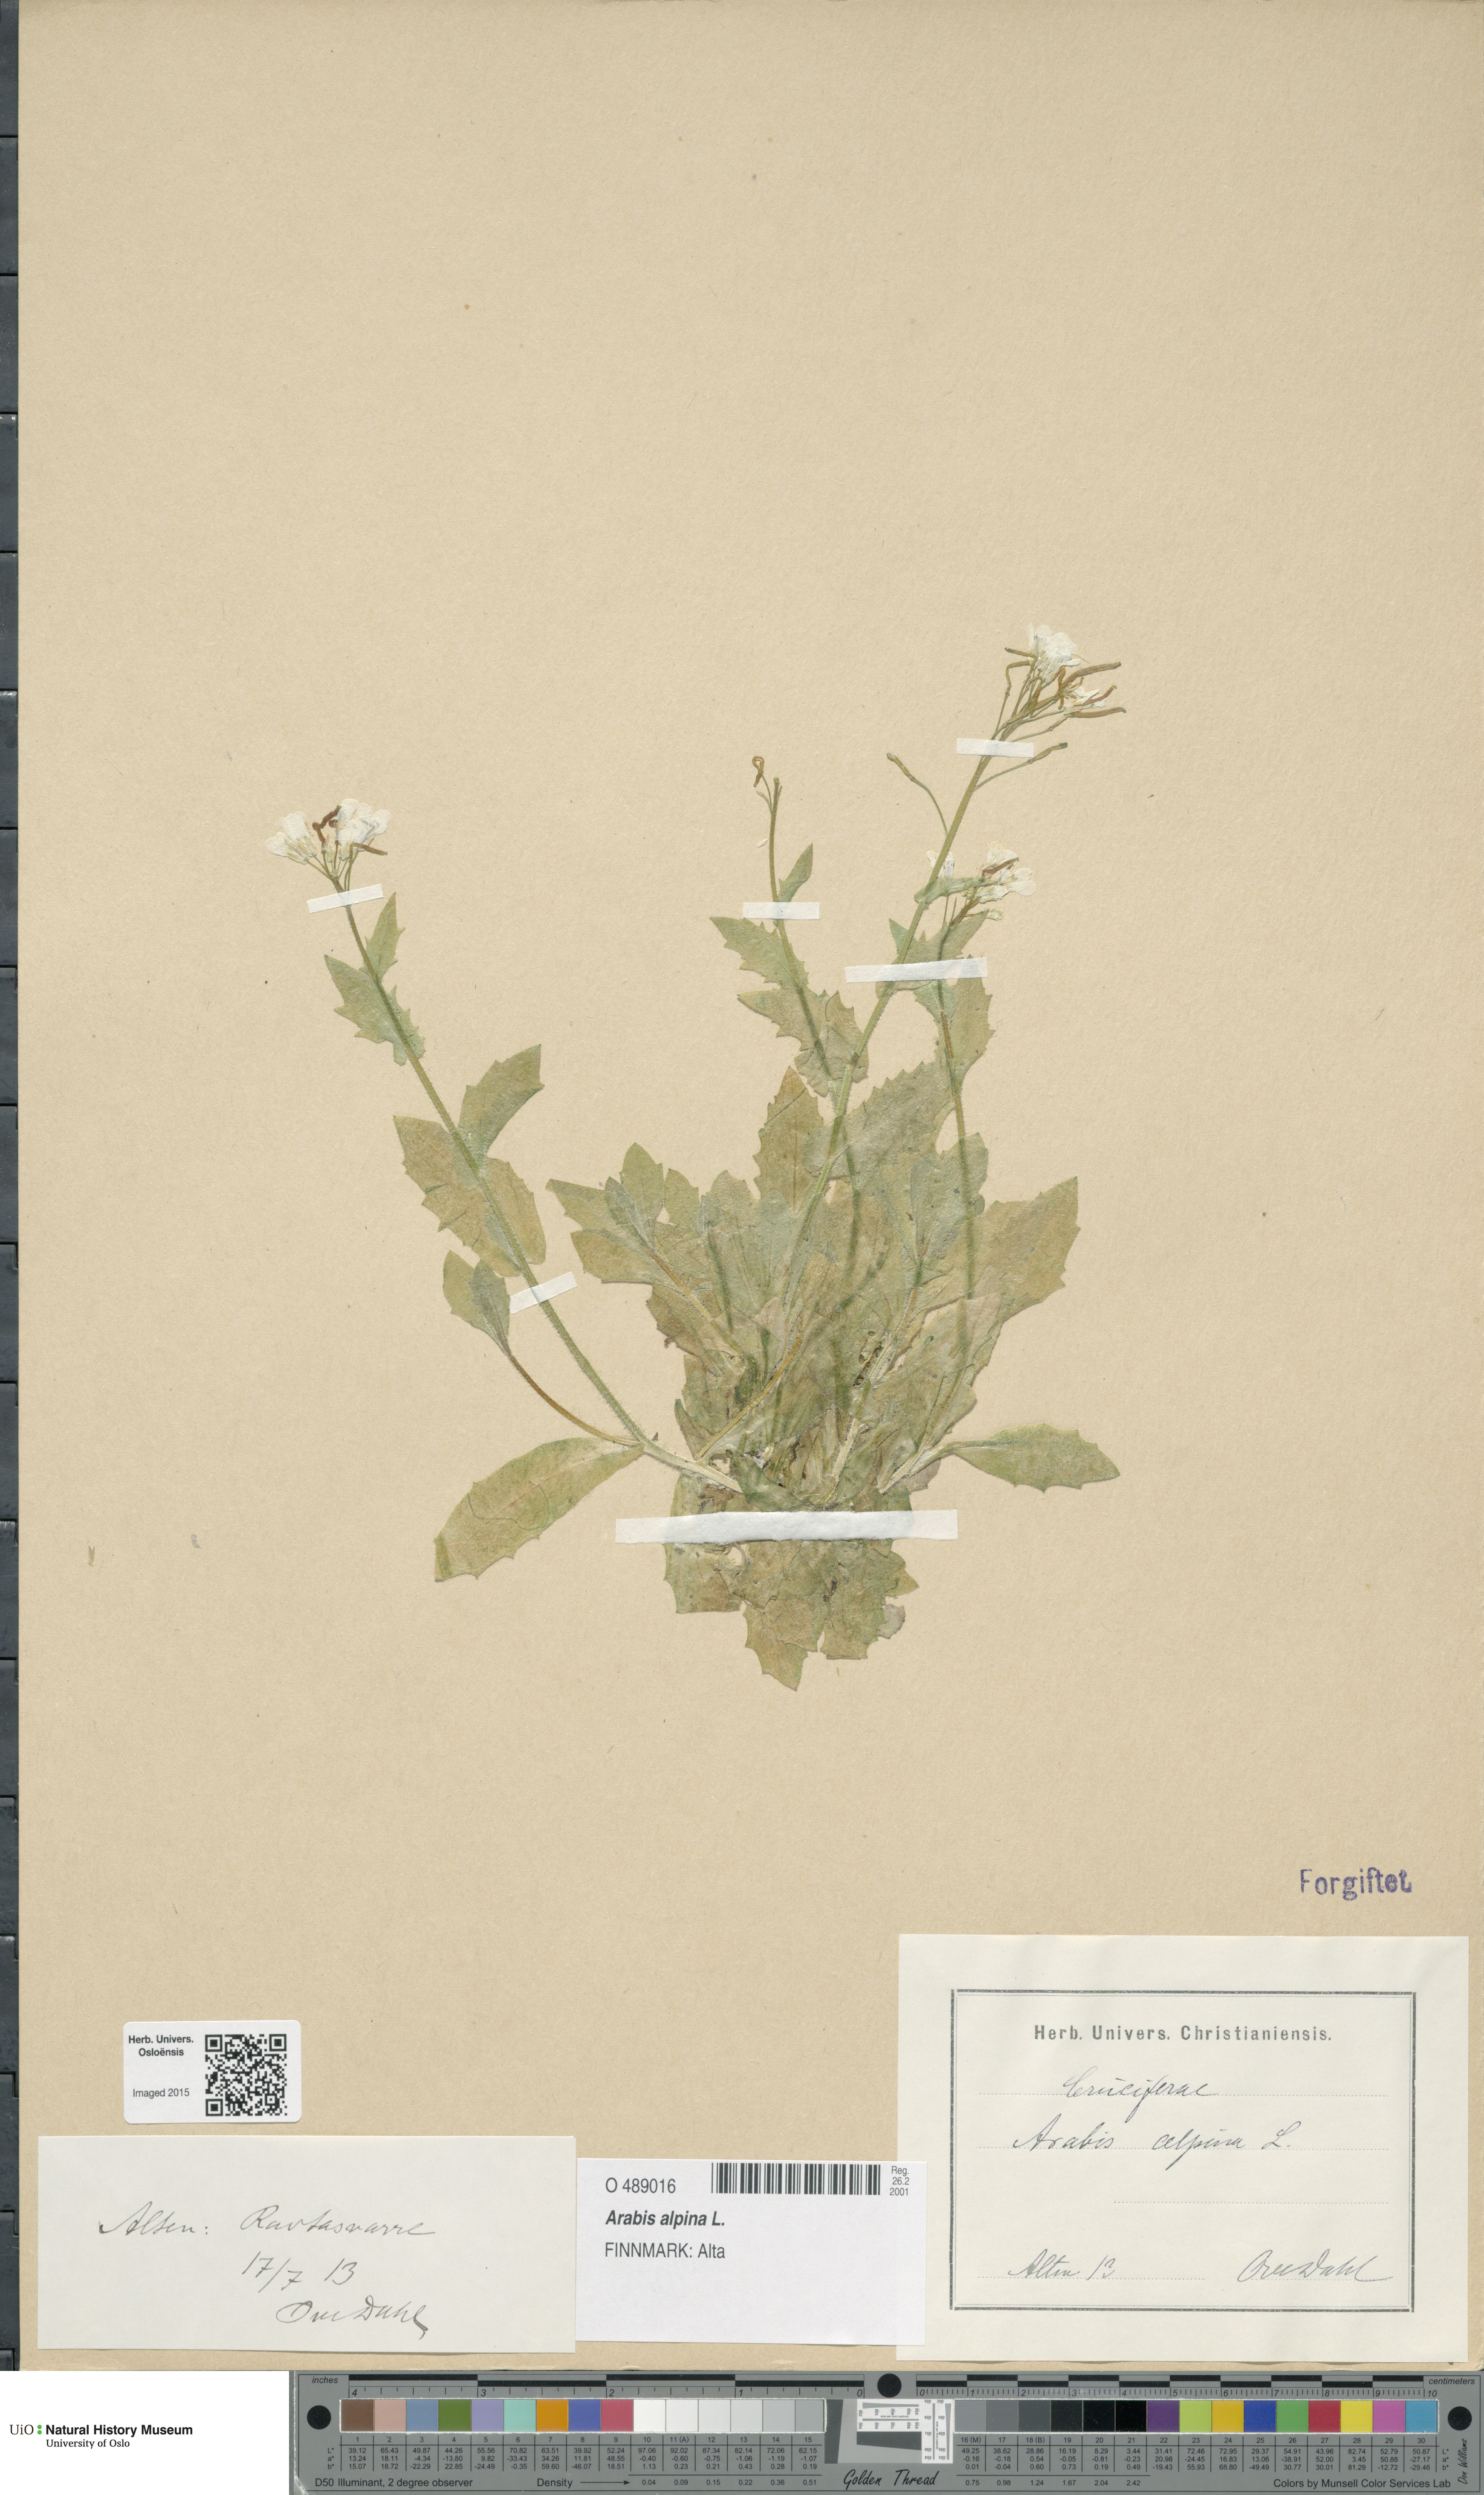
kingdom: Plantae
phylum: Tracheophyta
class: Magnoliopsida
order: Brassicales
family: Brassicaceae
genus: Arabis
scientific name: Arabis alpina
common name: Alpine rock-cress
